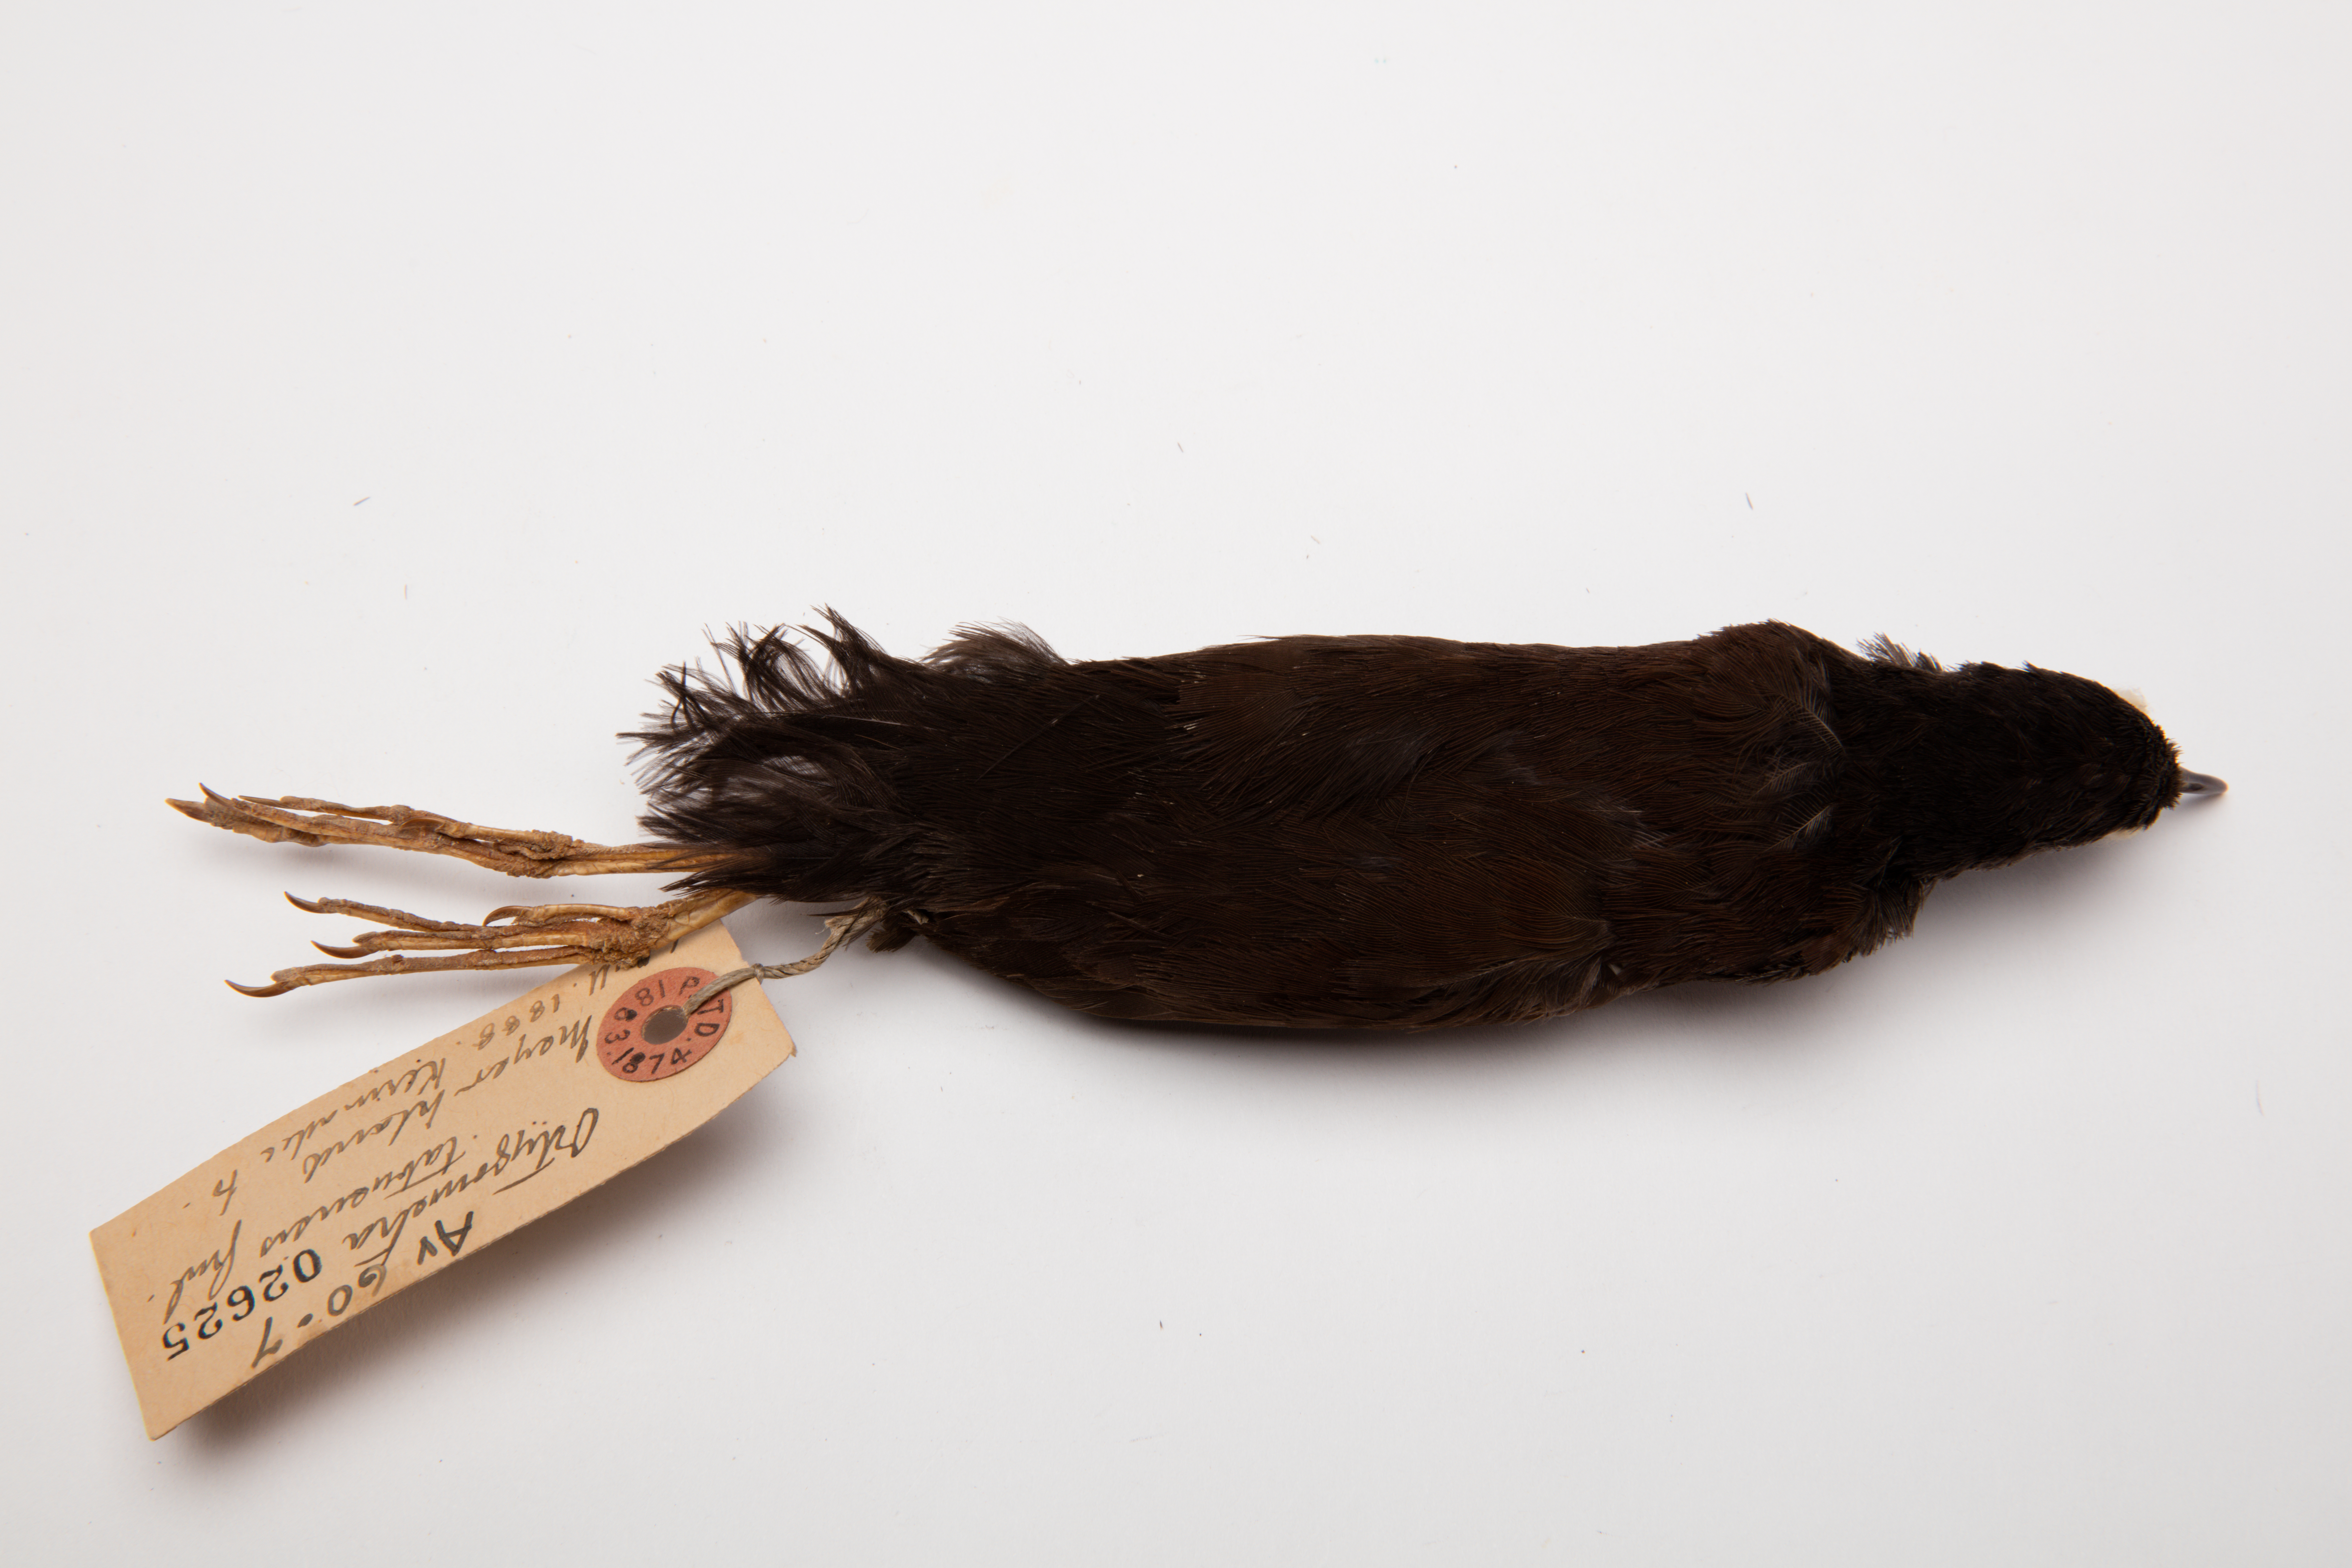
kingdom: Animalia
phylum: Chordata
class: Aves
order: Gruiformes
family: Rallidae
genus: Porzana
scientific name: Porzana tabuensis
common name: Spotless crake
